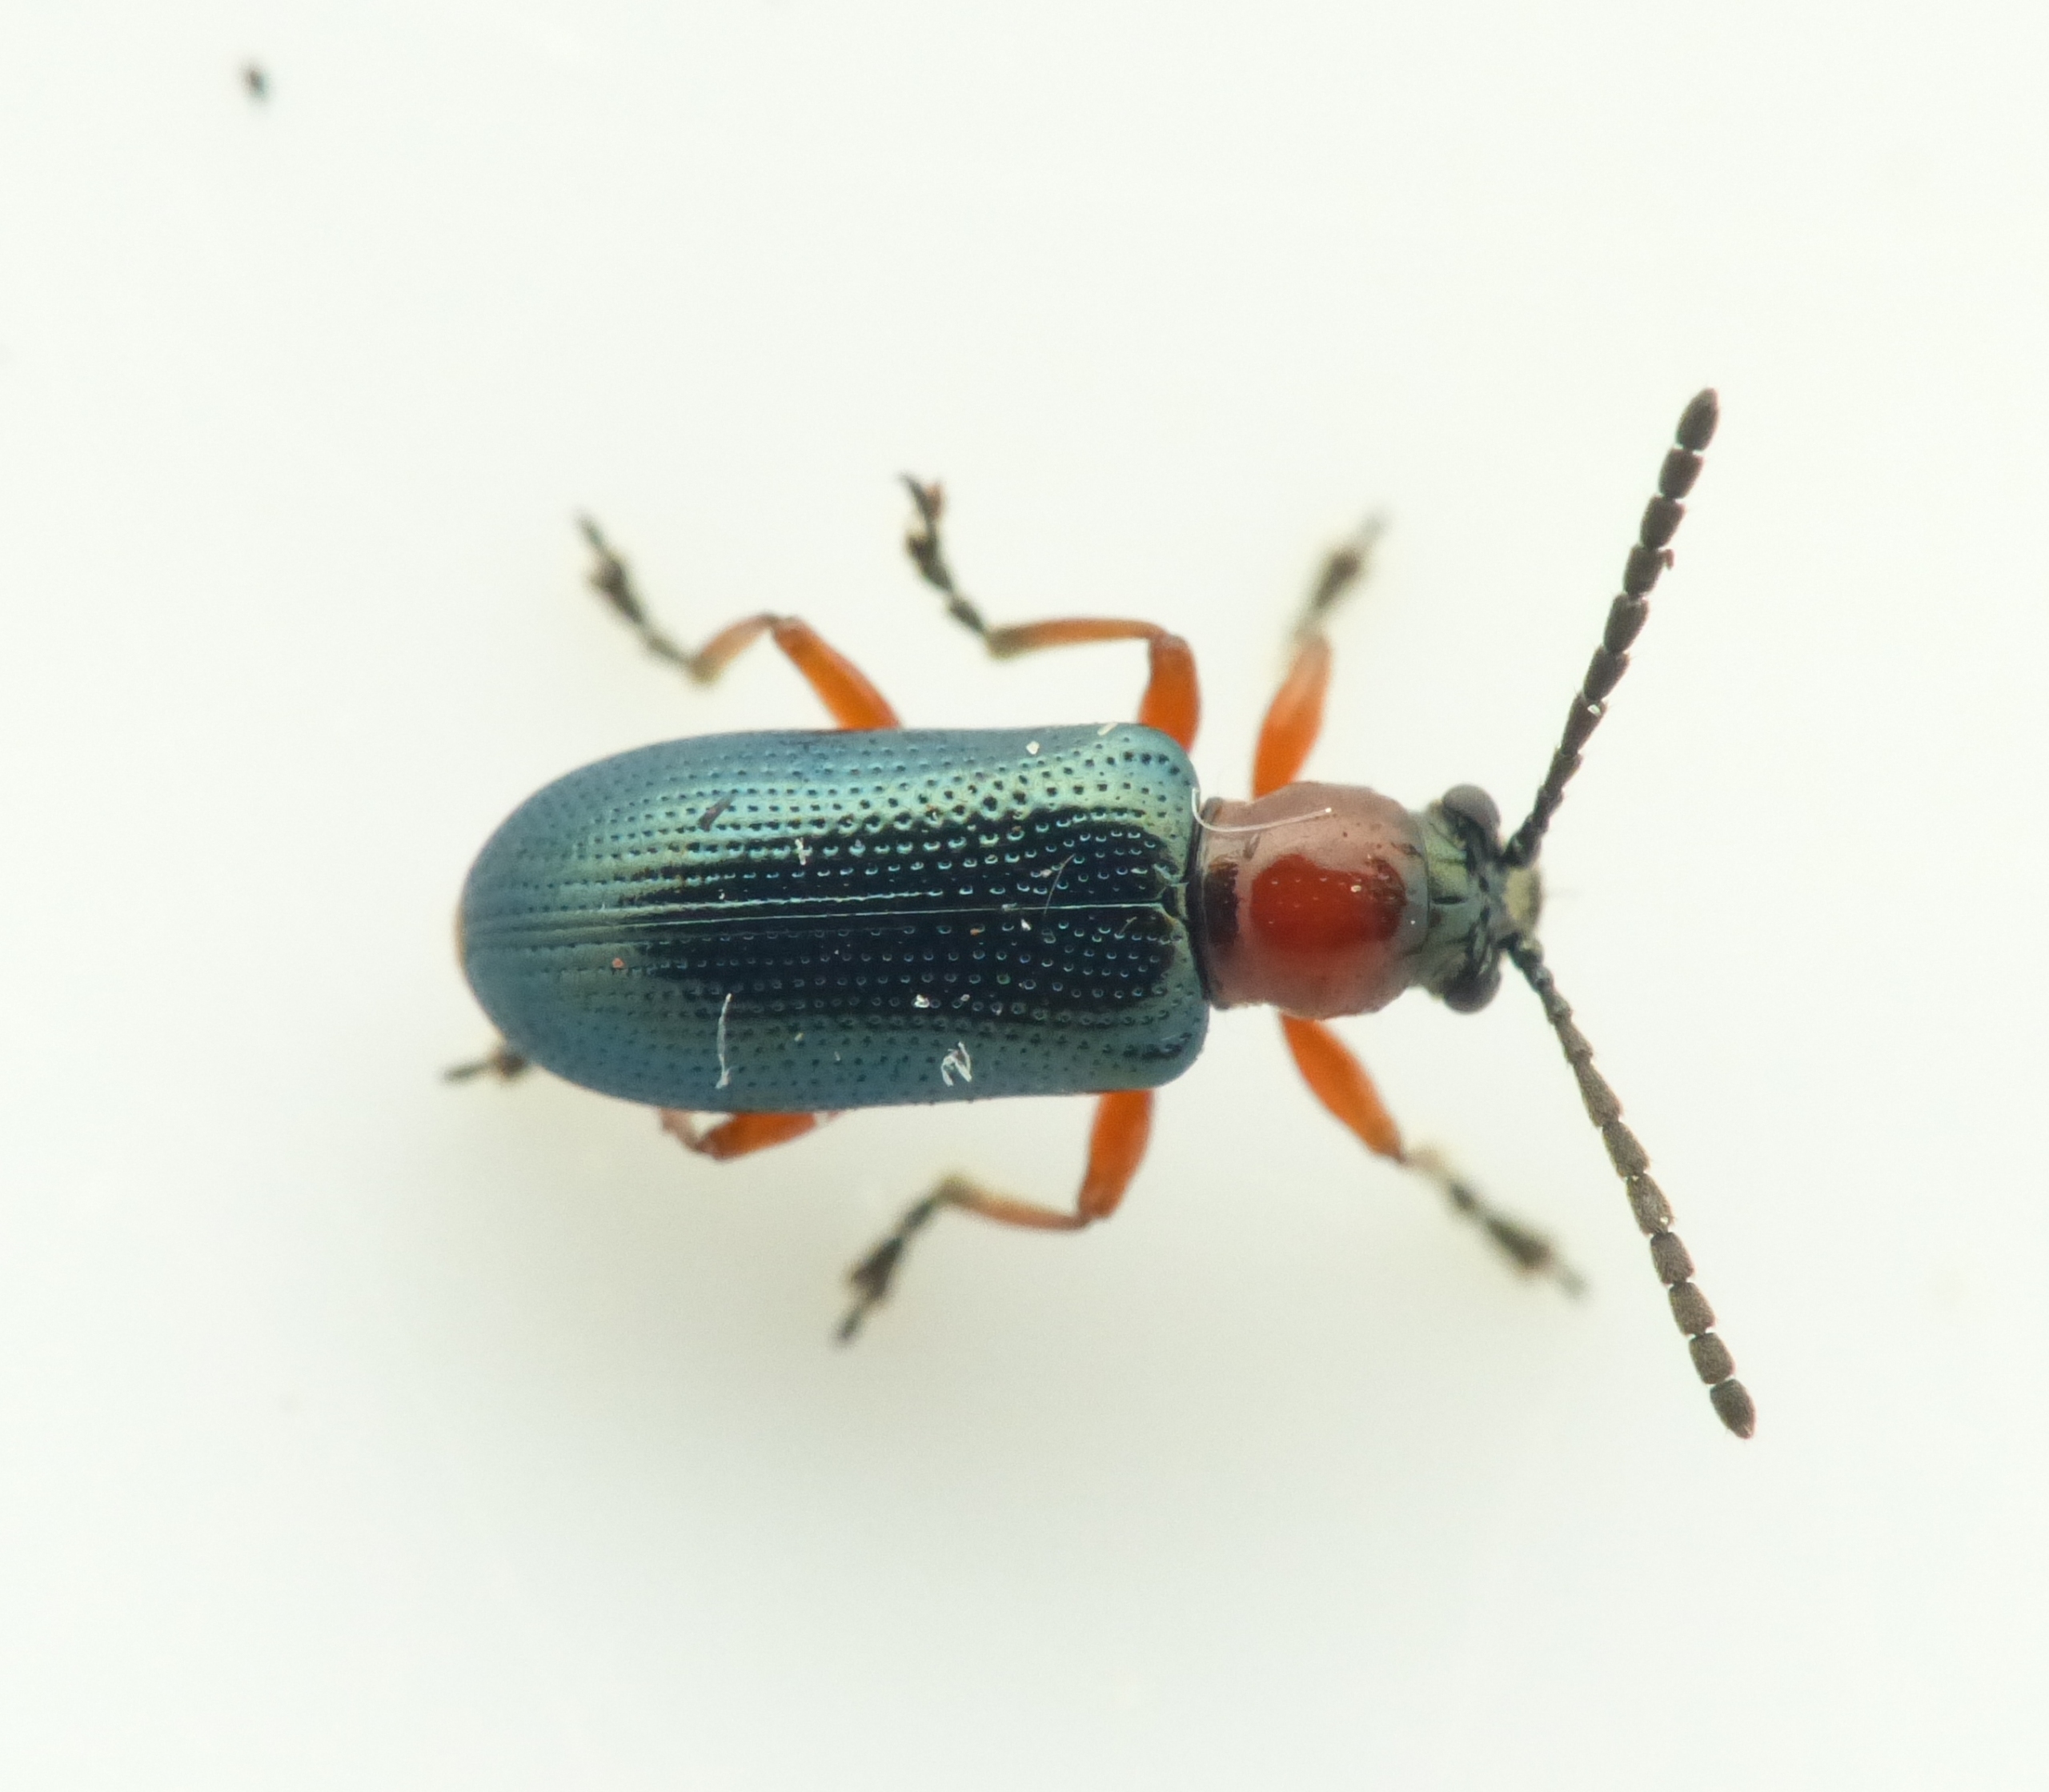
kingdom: Animalia
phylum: Arthropoda
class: Insecta
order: Coleoptera
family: Chrysomelidae
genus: Oulema
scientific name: Oulema melanopus
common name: Kornbladbille
